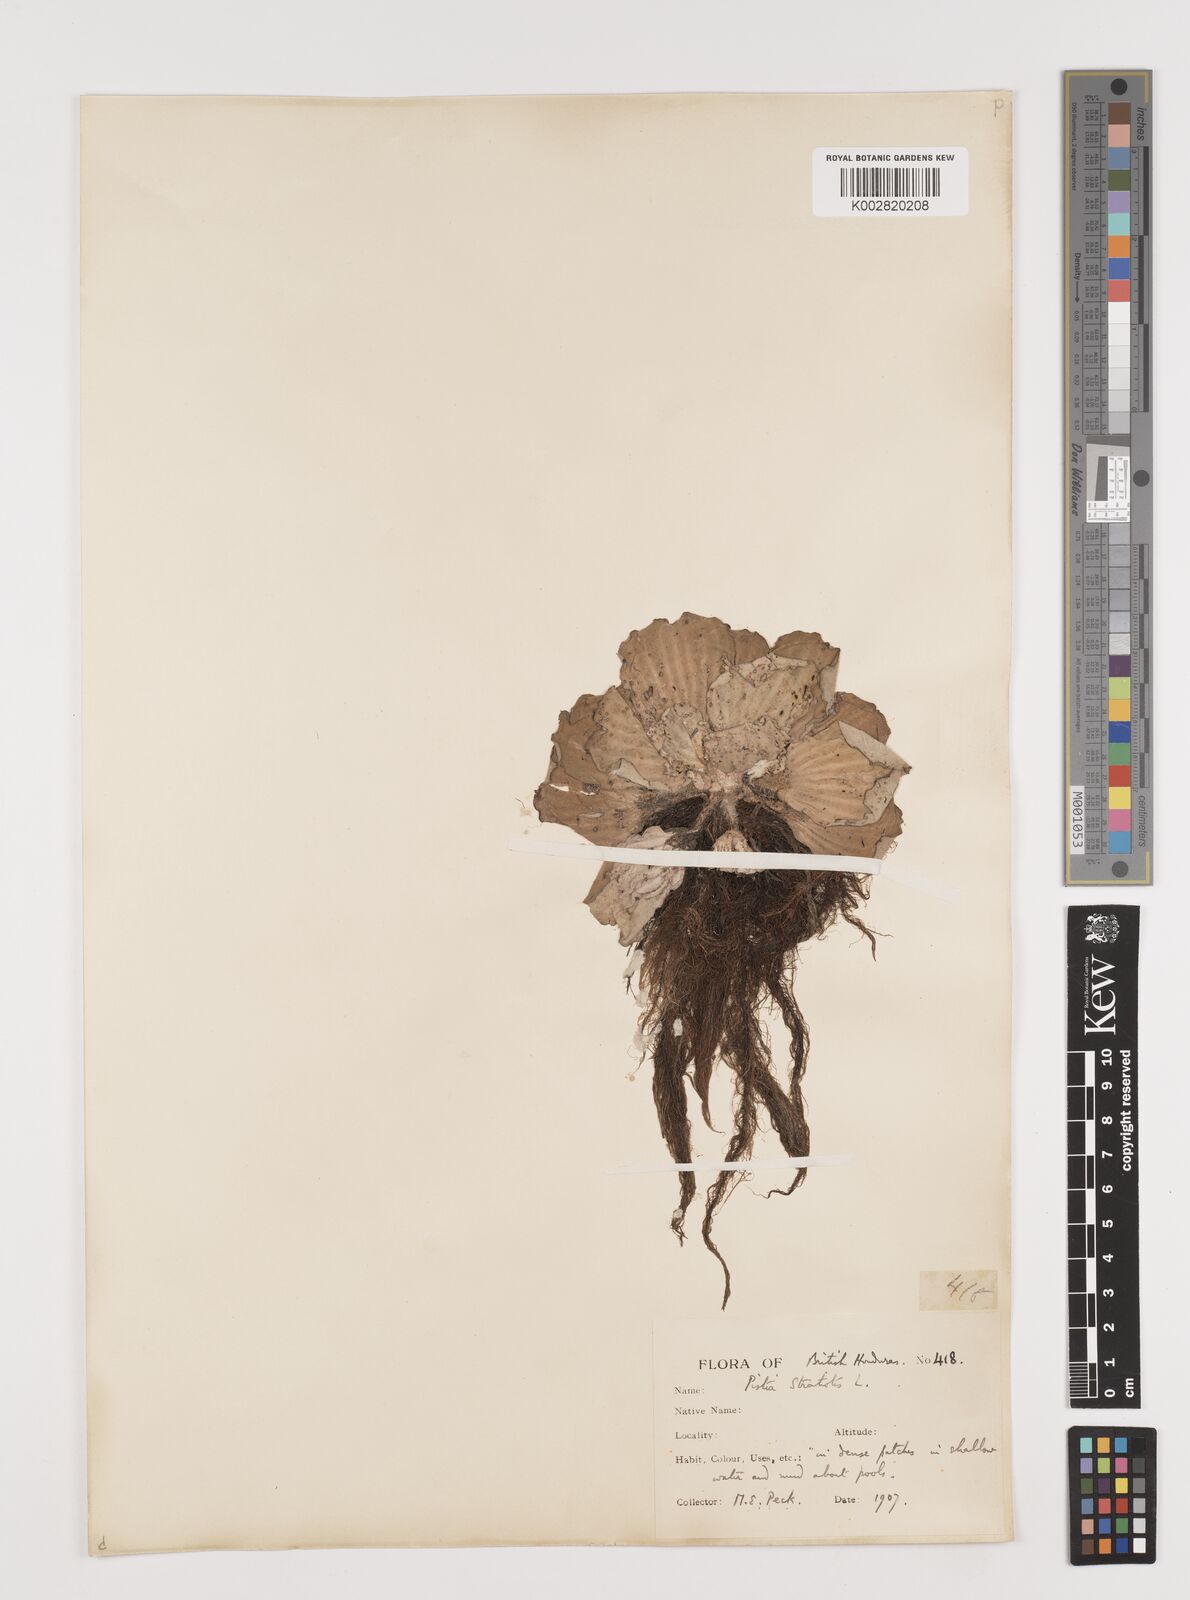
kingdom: Plantae
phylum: Tracheophyta
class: Liliopsida
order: Alismatales
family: Araceae
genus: Pistia
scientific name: Pistia stratiotes
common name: Water lettuce
